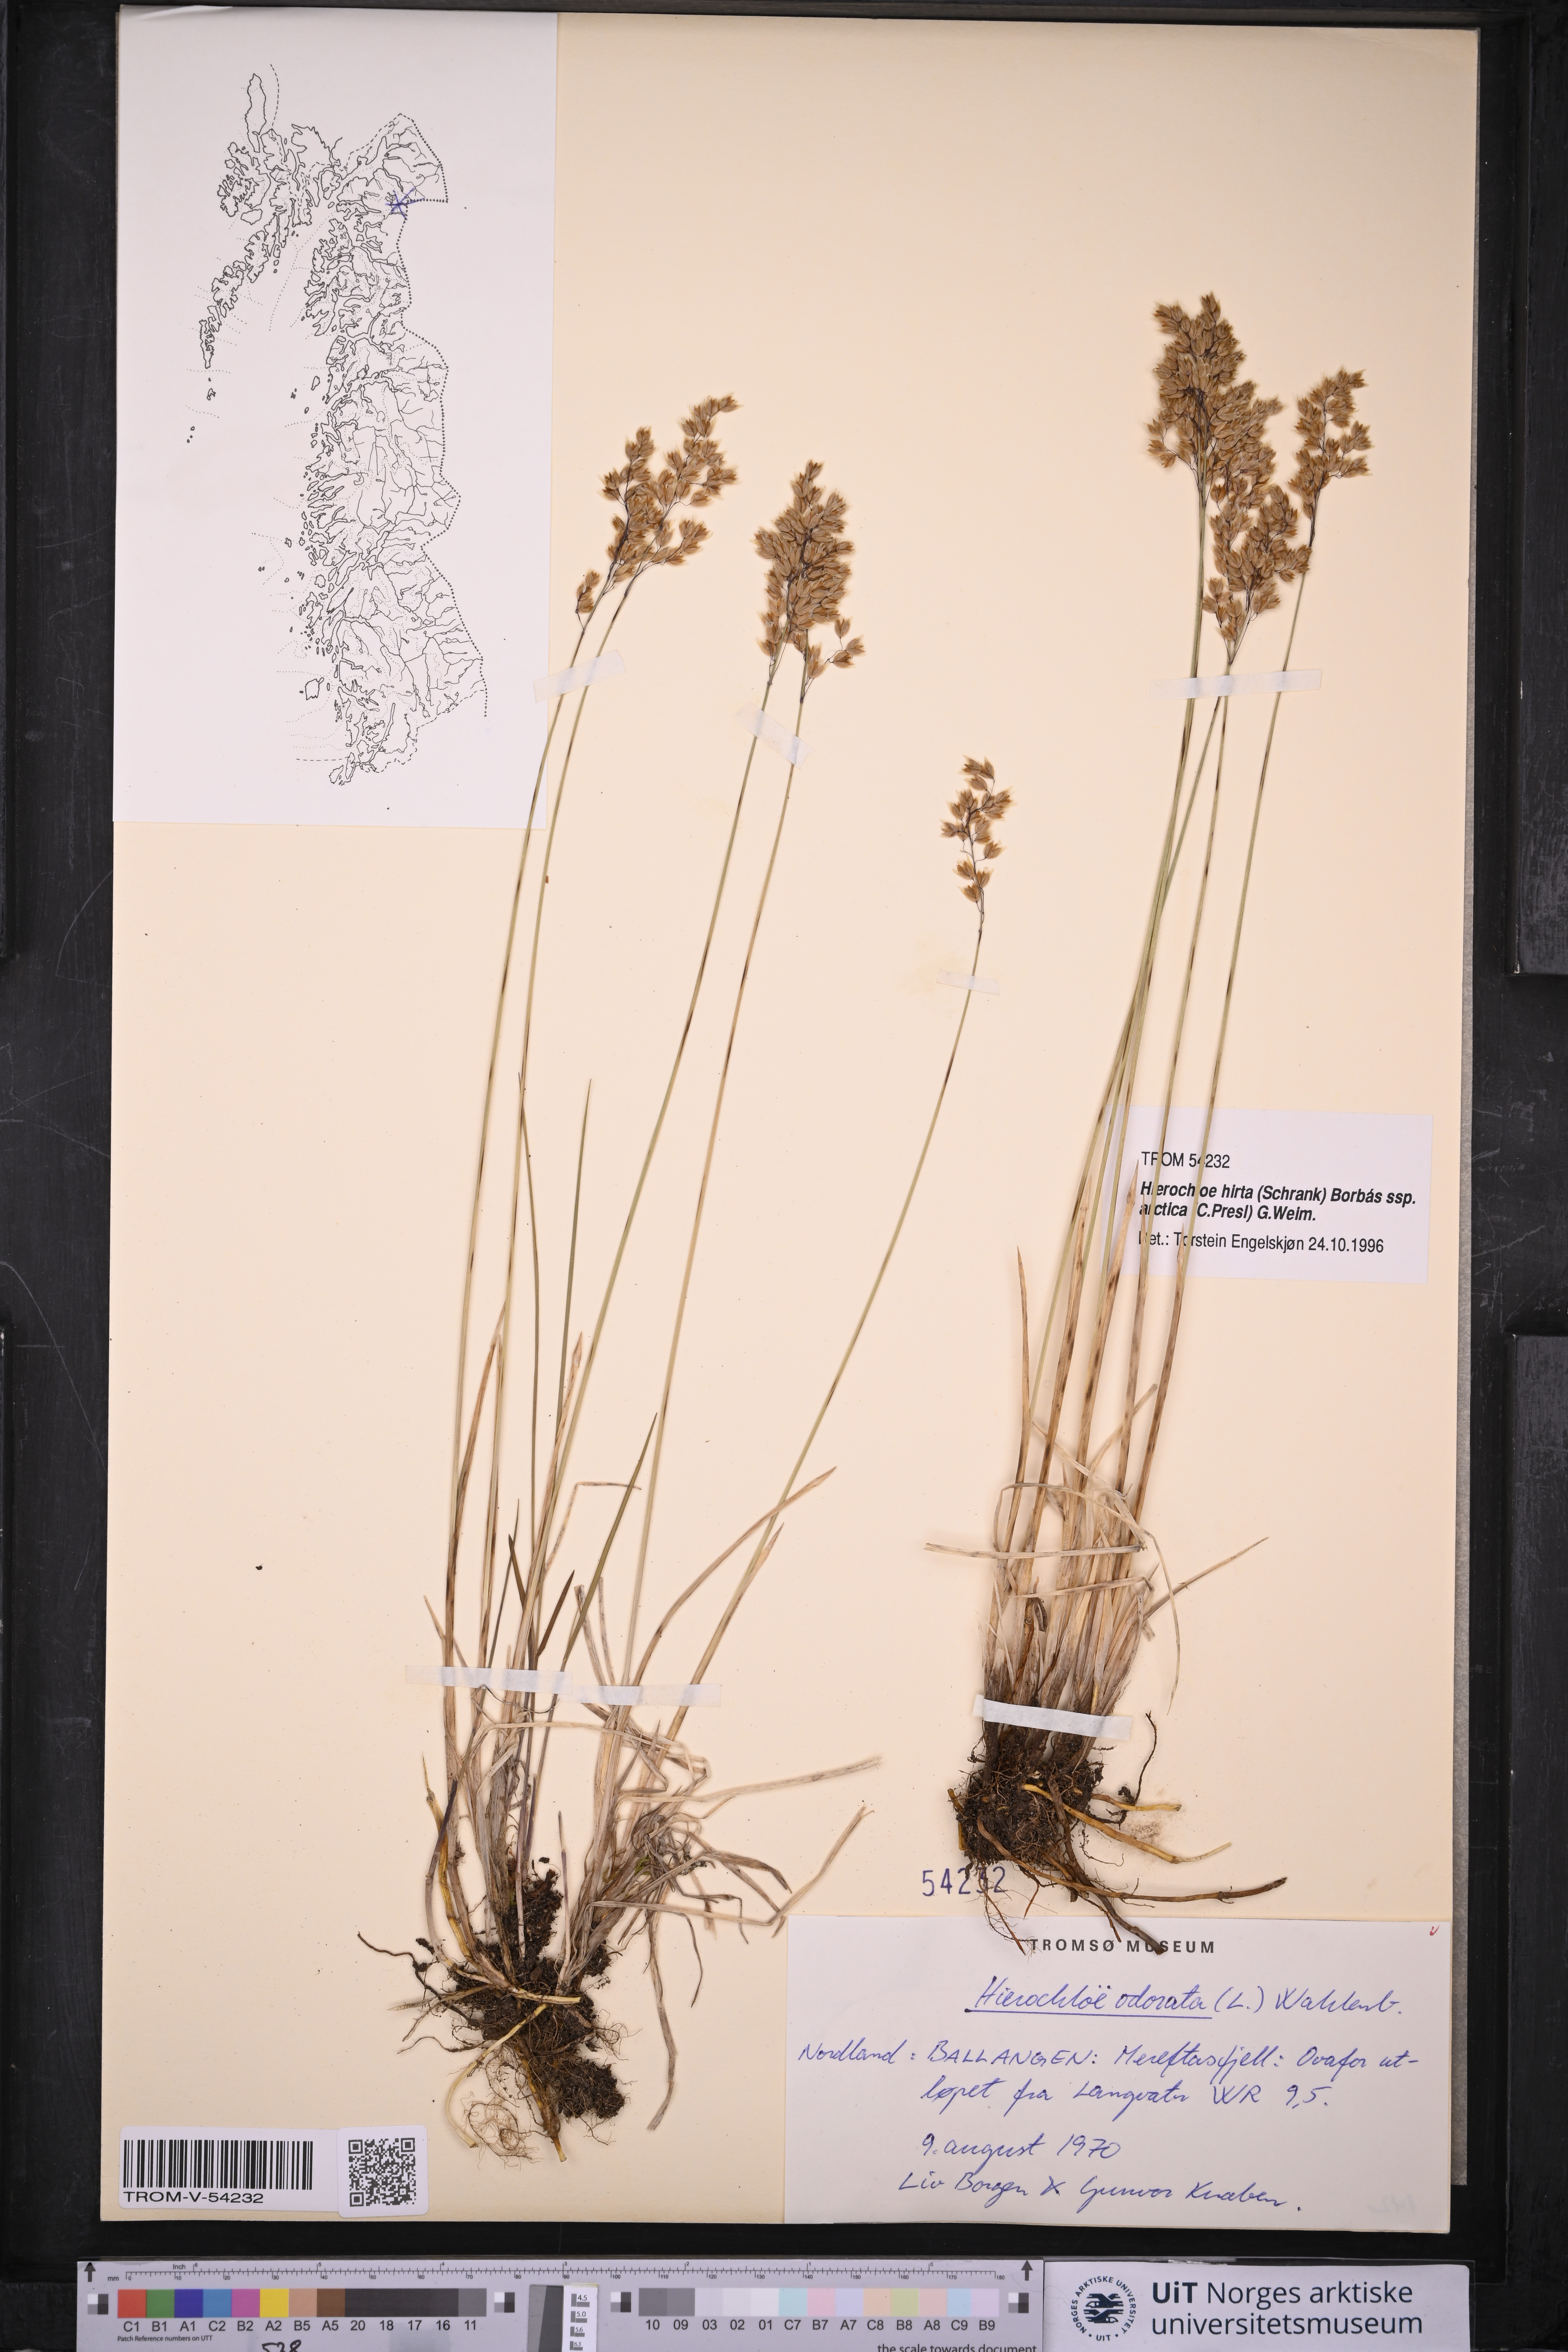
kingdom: Plantae
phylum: Tracheophyta
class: Liliopsida
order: Poales
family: Poaceae
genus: Anthoxanthum
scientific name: Anthoxanthum nitens
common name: Holy grass
